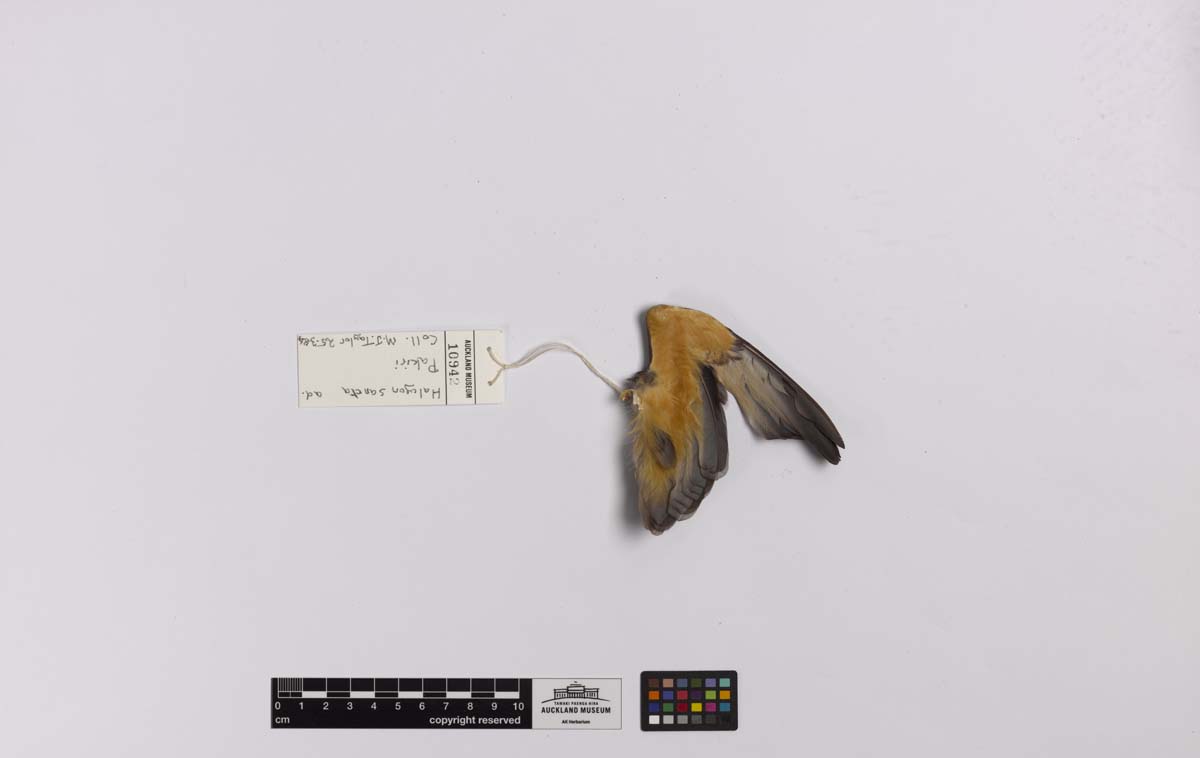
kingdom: Animalia
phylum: Chordata
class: Aves
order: Coraciiformes
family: Alcedinidae
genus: Todiramphus
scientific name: Todiramphus sanctus
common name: Sacred kingfisher
